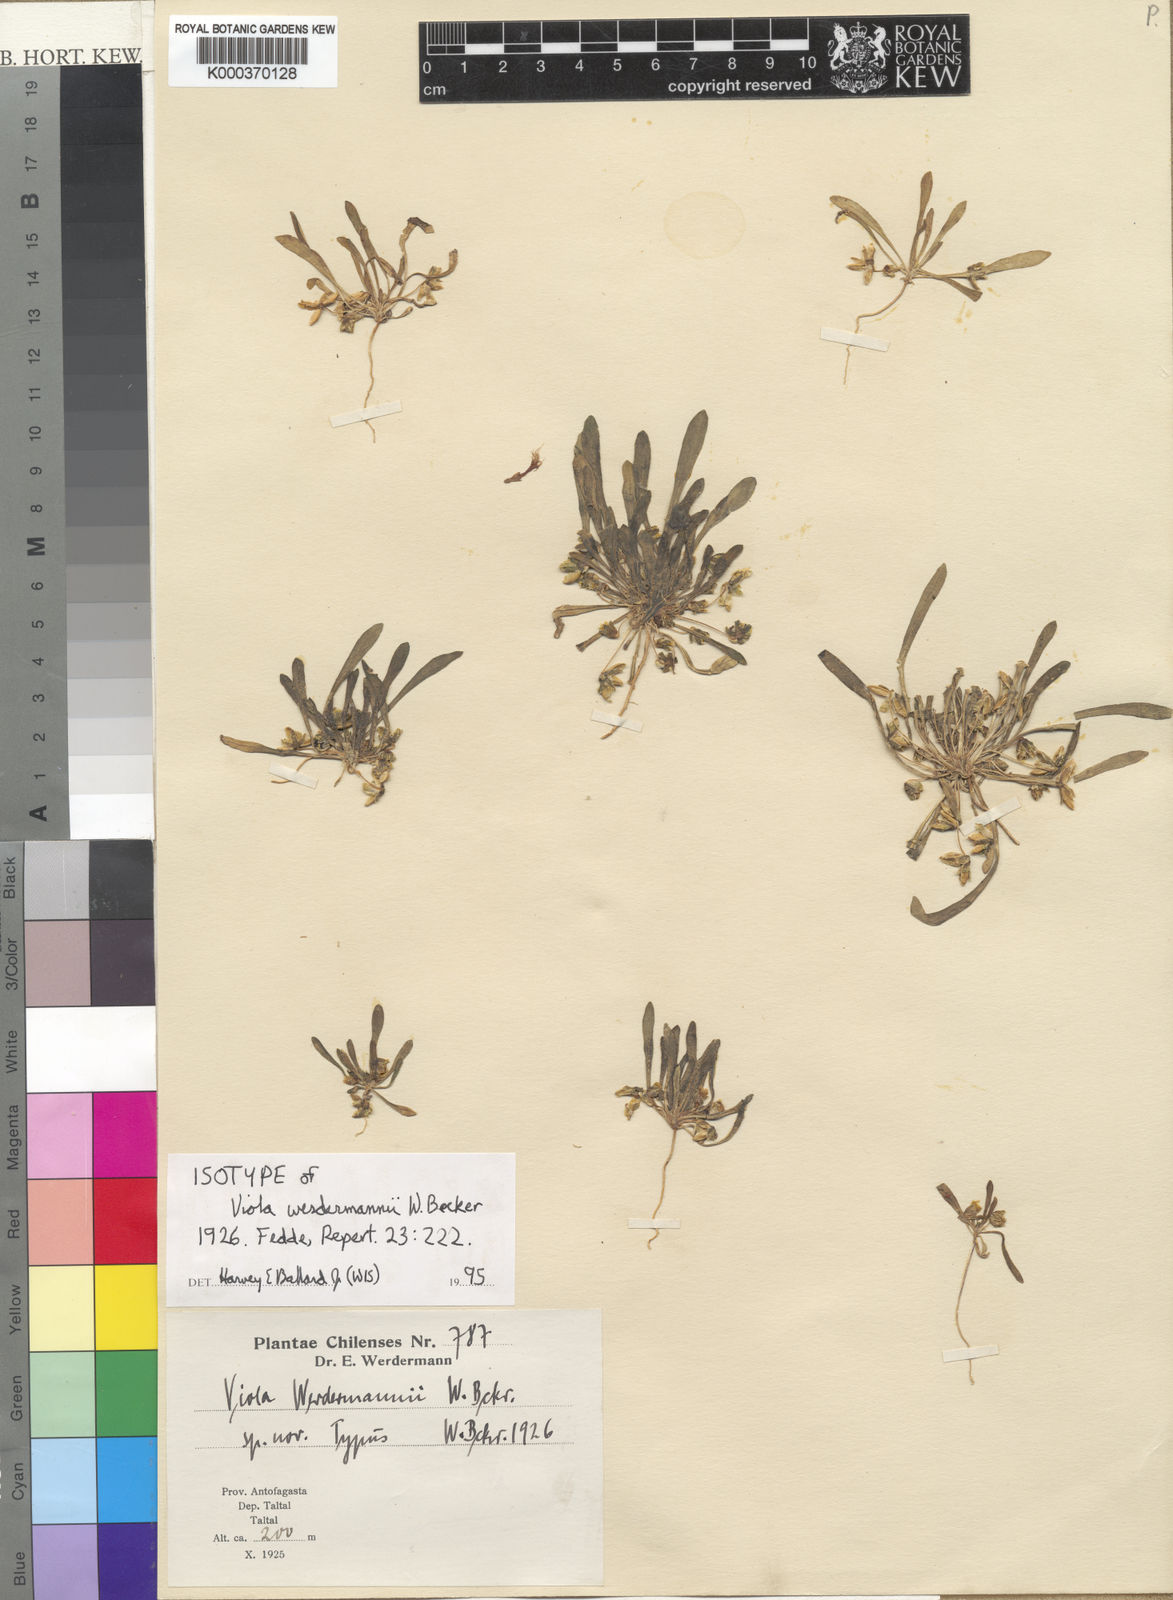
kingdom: Plantae
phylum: Tracheophyta
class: Magnoliopsida
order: Malpighiales
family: Violaceae
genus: Viola
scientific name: Viola polypoda
